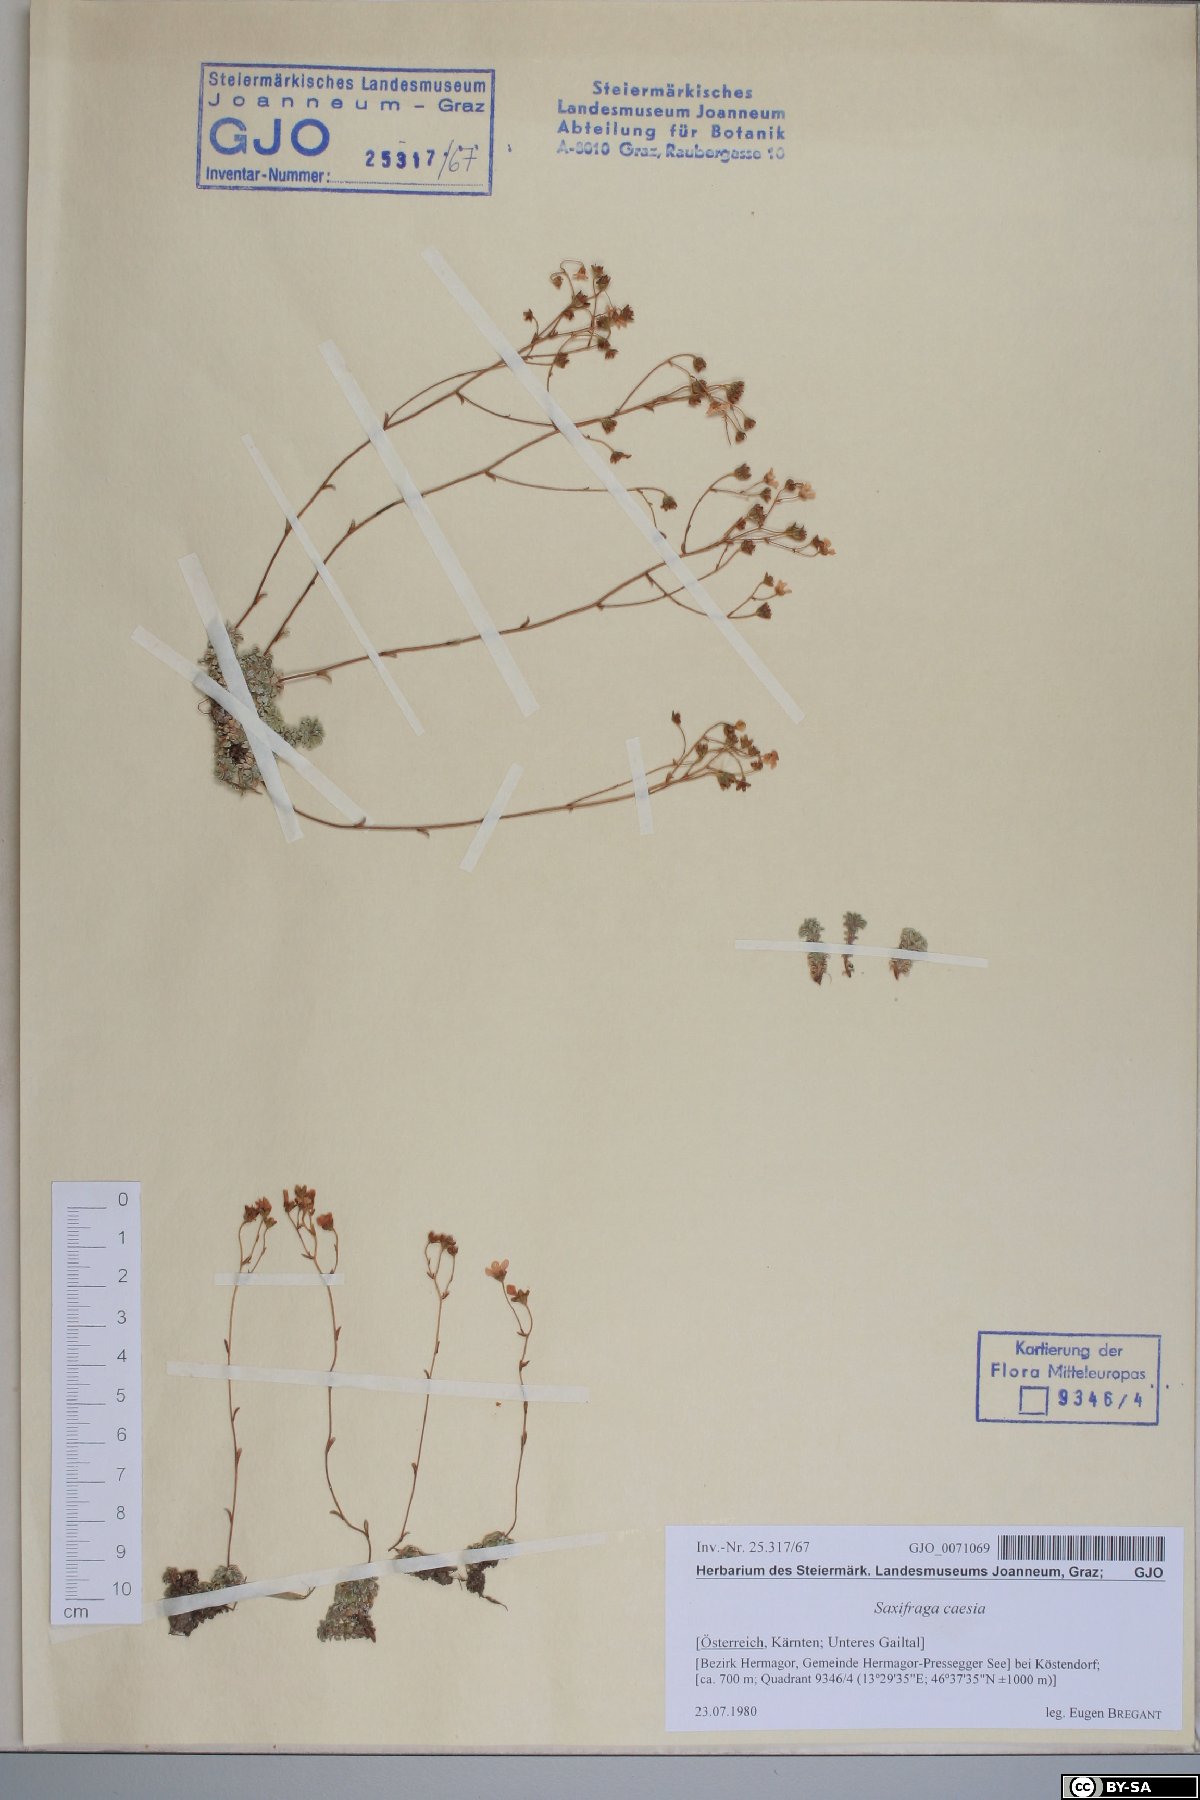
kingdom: Plantae
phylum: Tracheophyta
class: Magnoliopsida
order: Saxifragales
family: Saxifragaceae
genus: Saxifraga
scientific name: Saxifraga caesia
